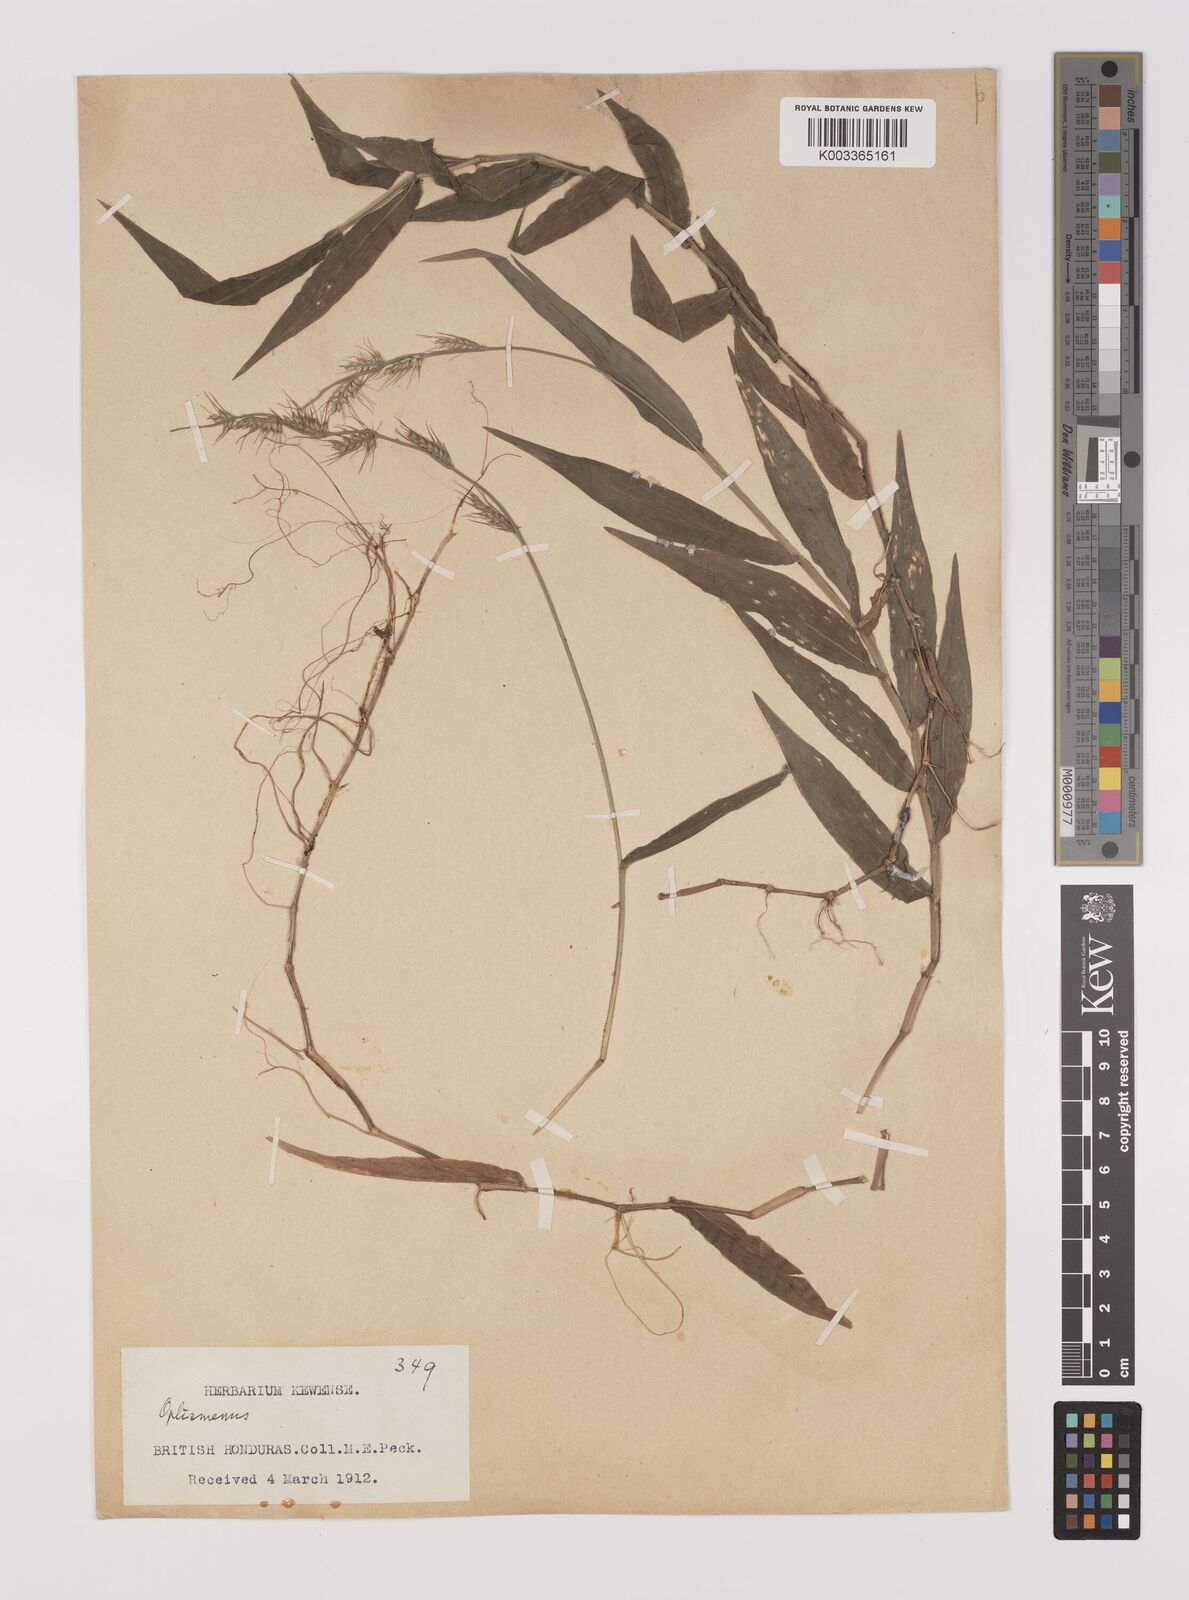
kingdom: Plantae
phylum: Tracheophyta
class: Liliopsida
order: Poales
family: Poaceae
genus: Oplismenus
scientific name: Oplismenus hirtellus
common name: Basketgrass
